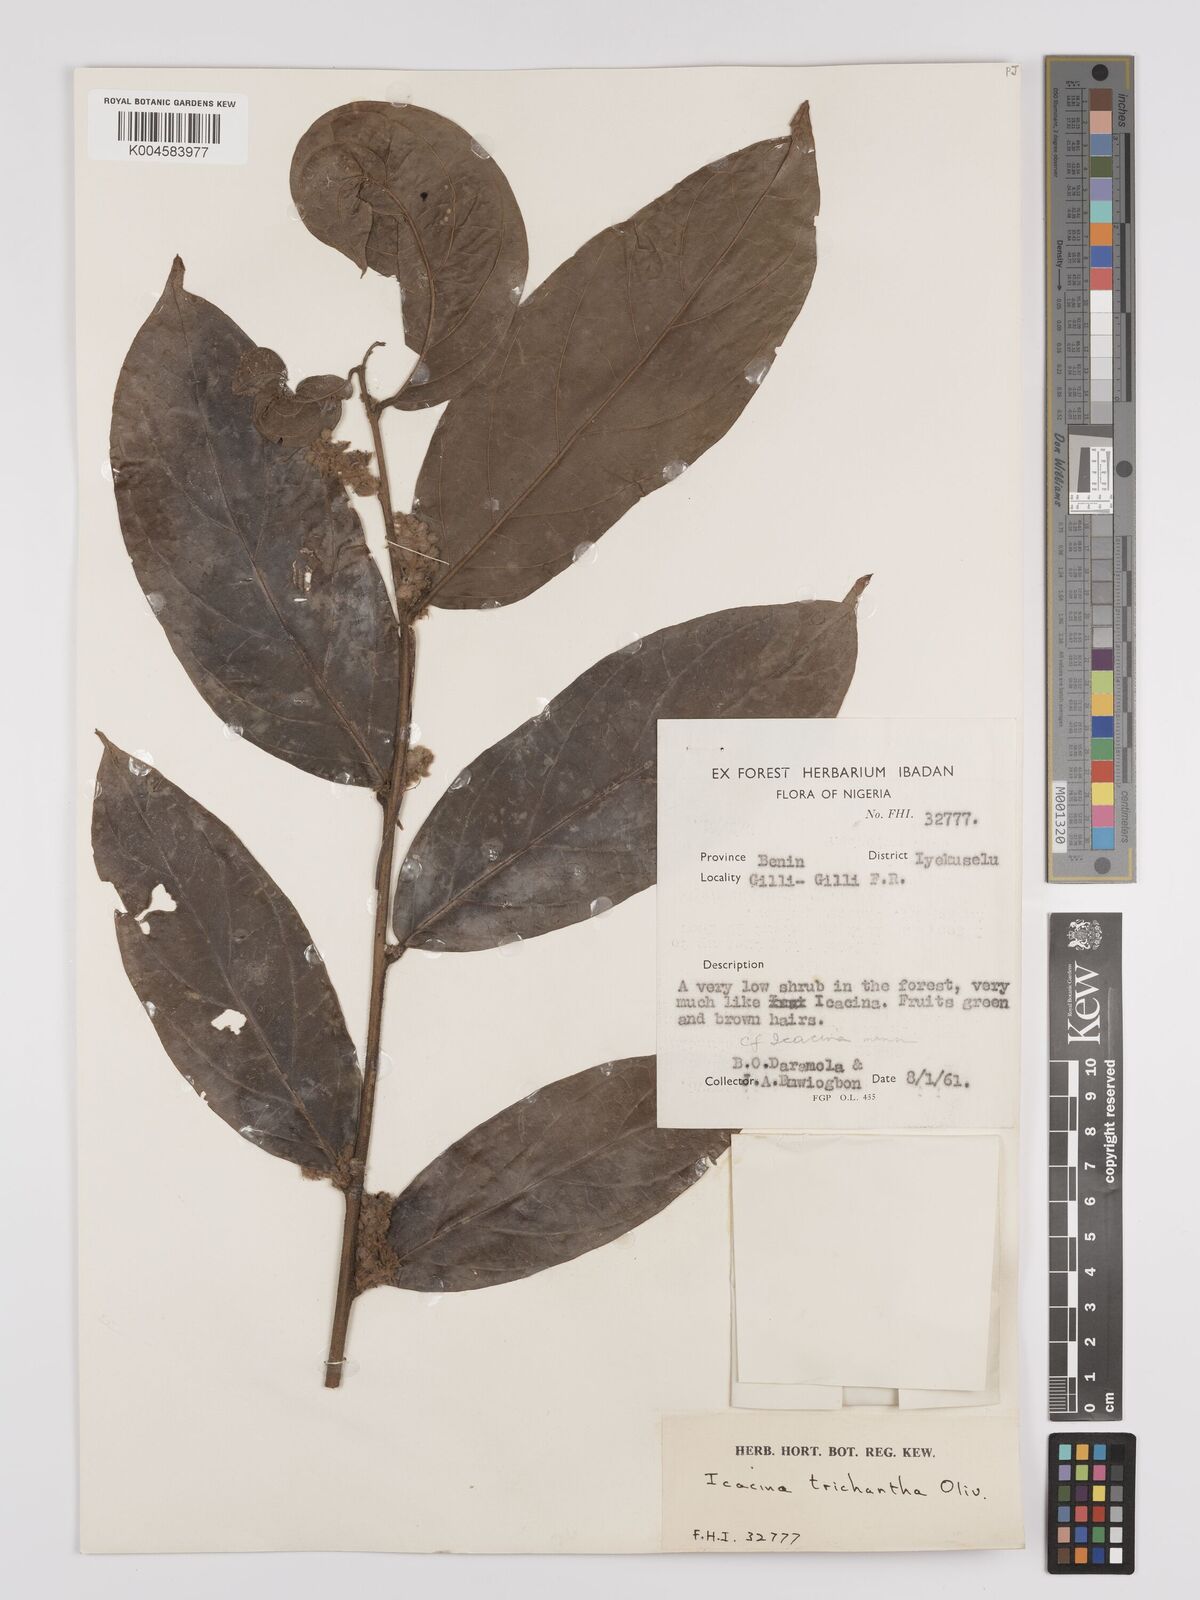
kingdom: Plantae
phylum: Tracheophyta
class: Magnoliopsida
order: Icacinales
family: Icacinaceae
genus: Icacina
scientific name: Icacina trichantha
